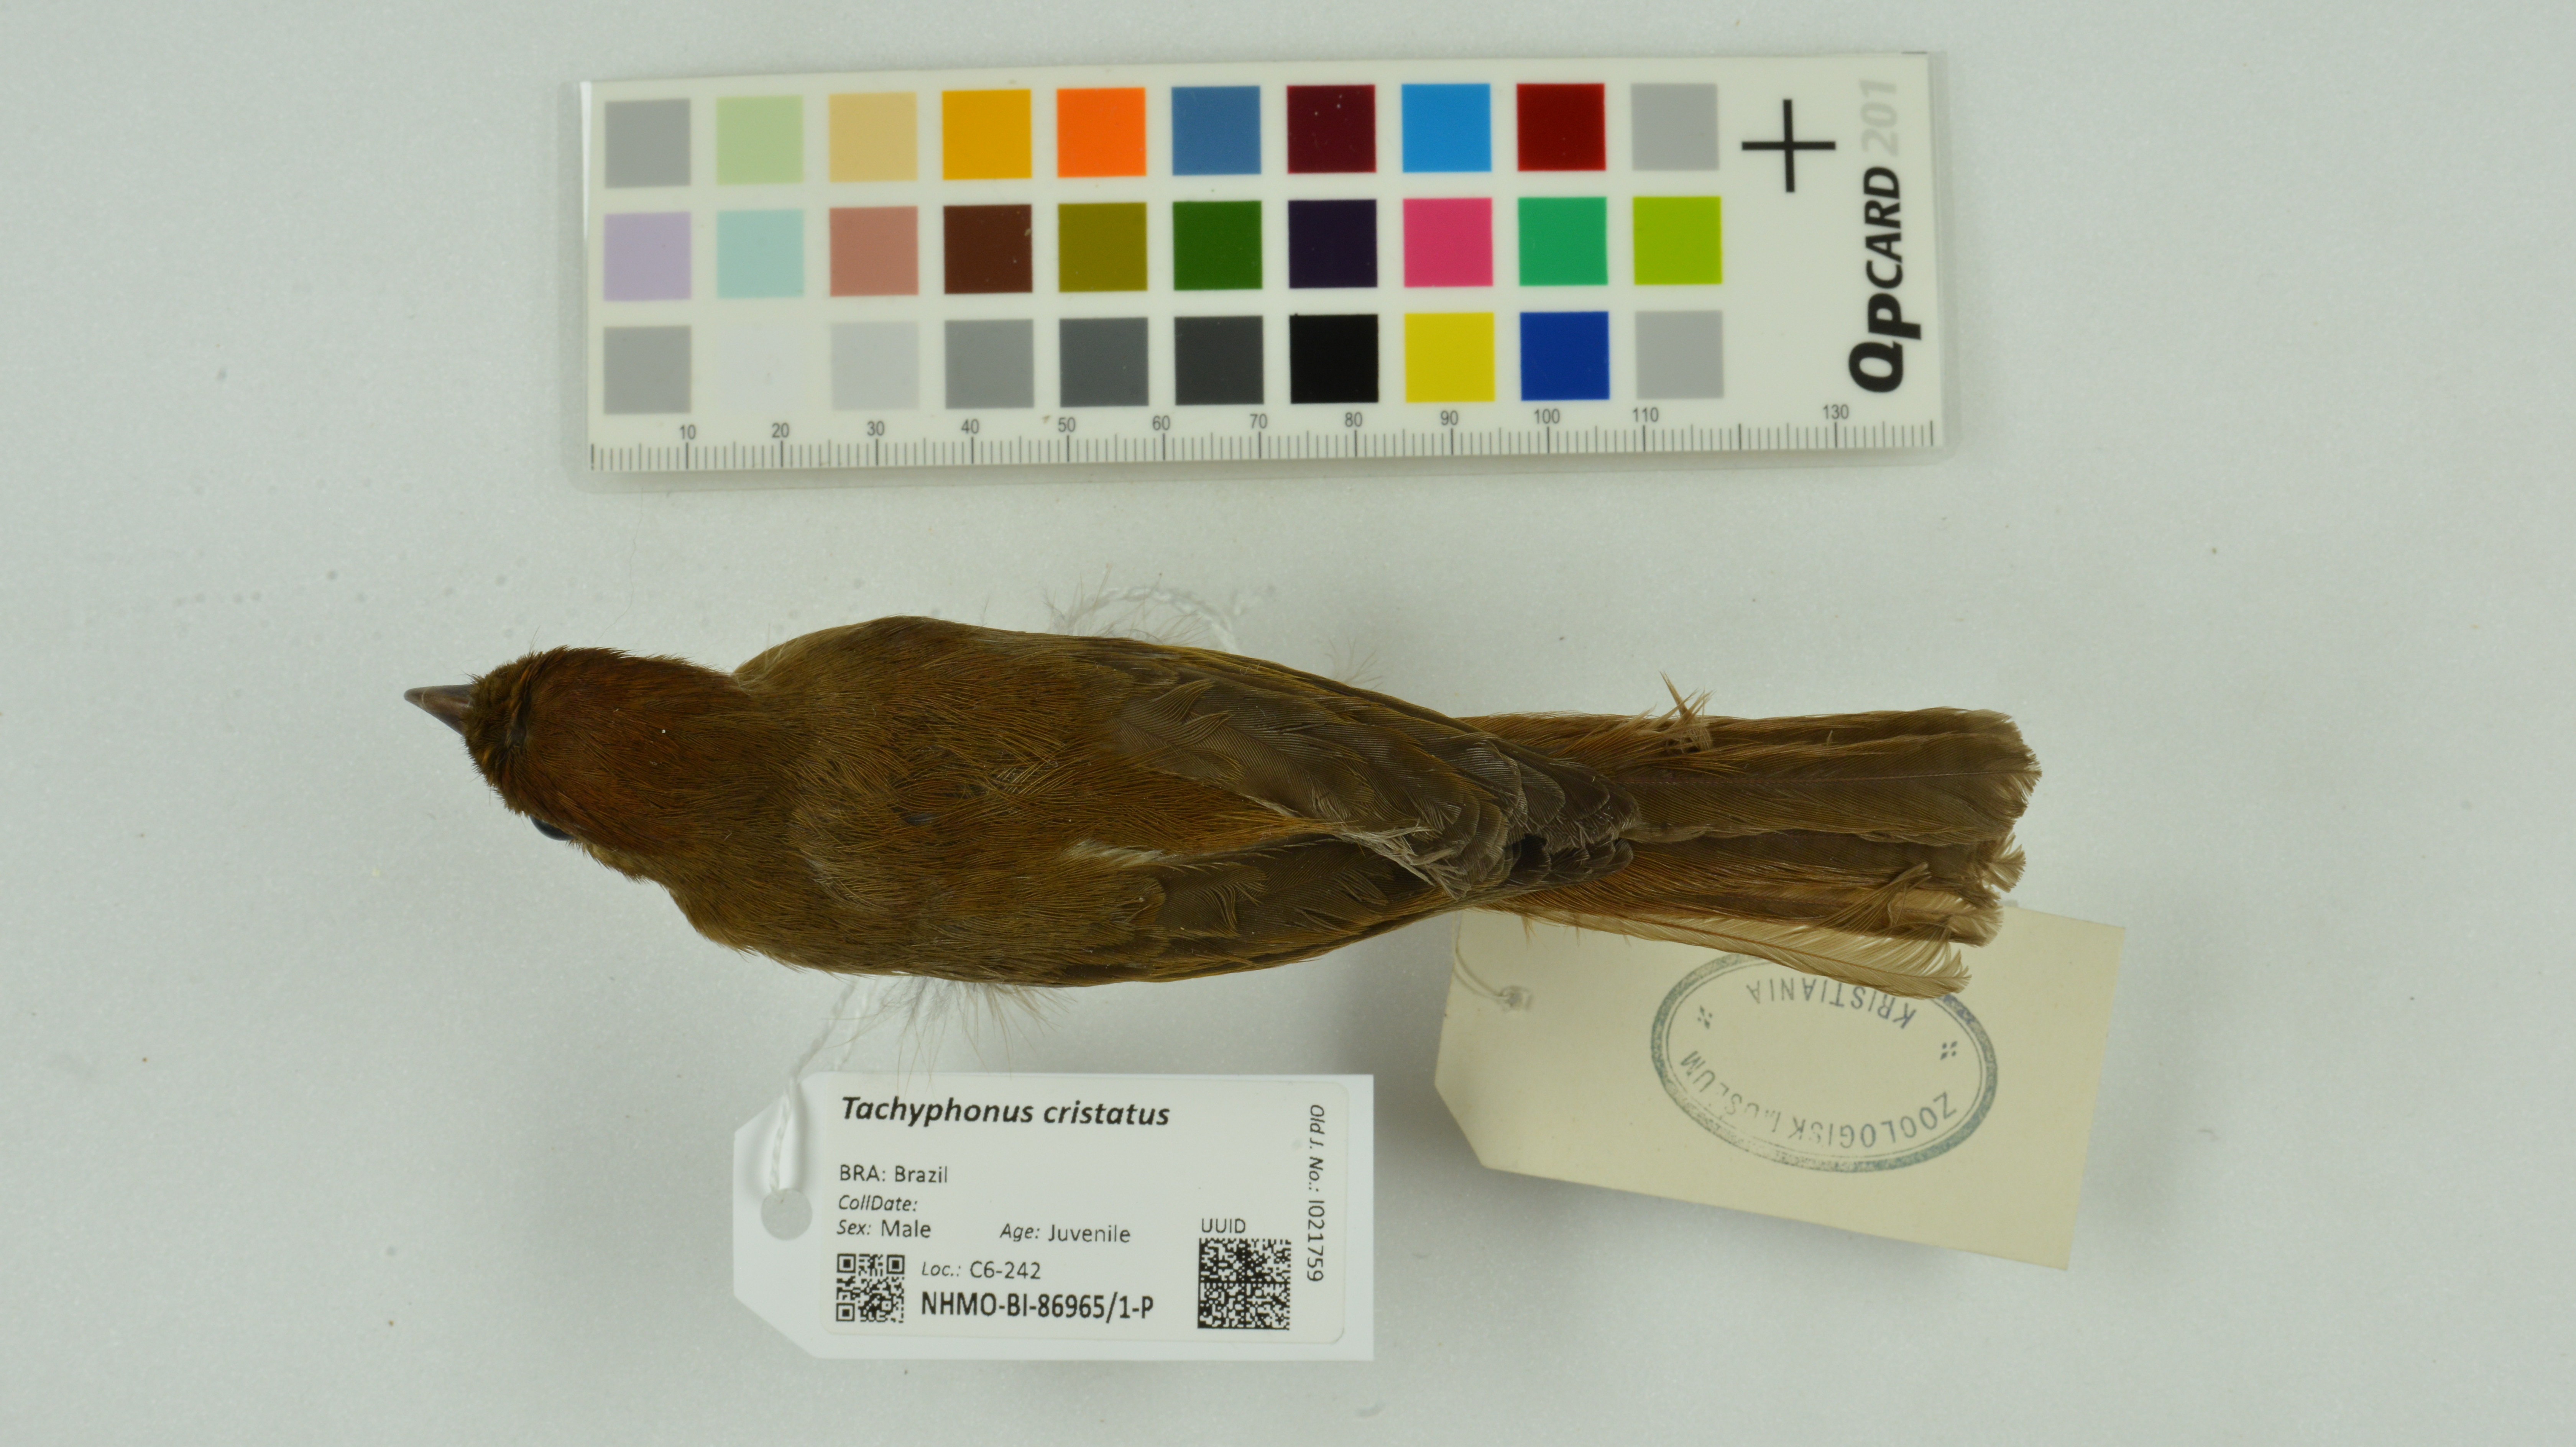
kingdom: Animalia
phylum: Chordata
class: Aves
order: Passeriformes
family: Thraupidae
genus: Loriotus
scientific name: Loriotus cristatus
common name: Flame-crested tanager
